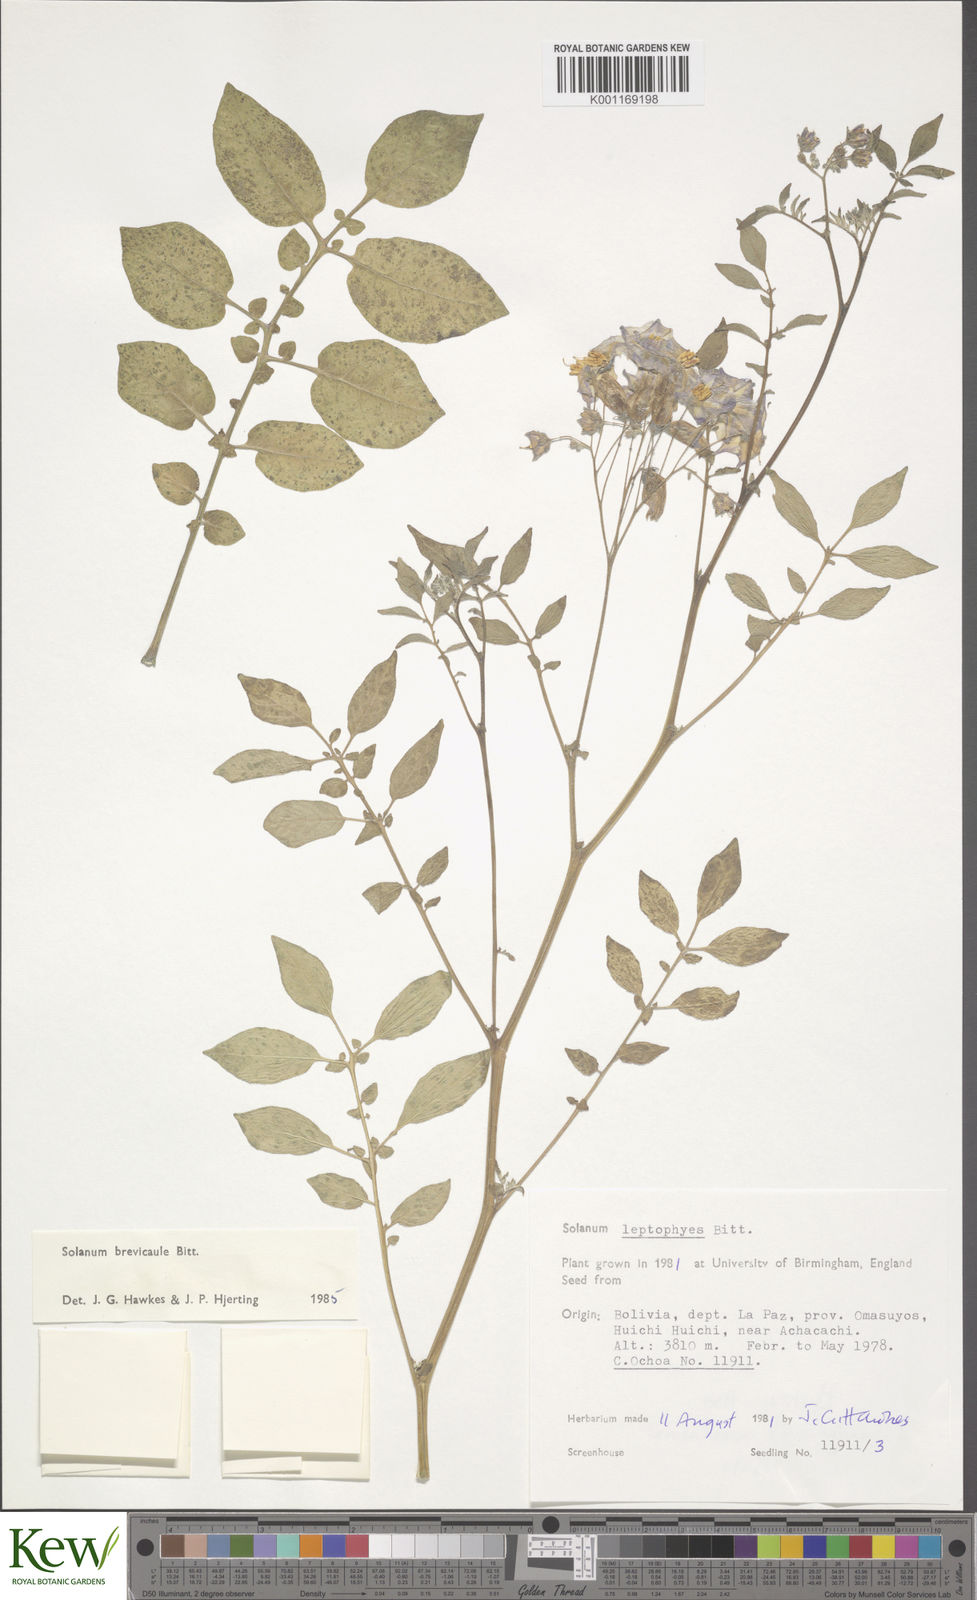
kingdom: Plantae
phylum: Tracheophyta
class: Magnoliopsida
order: Solanales
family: Solanaceae
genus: Solanum
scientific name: Solanum brevicaule
